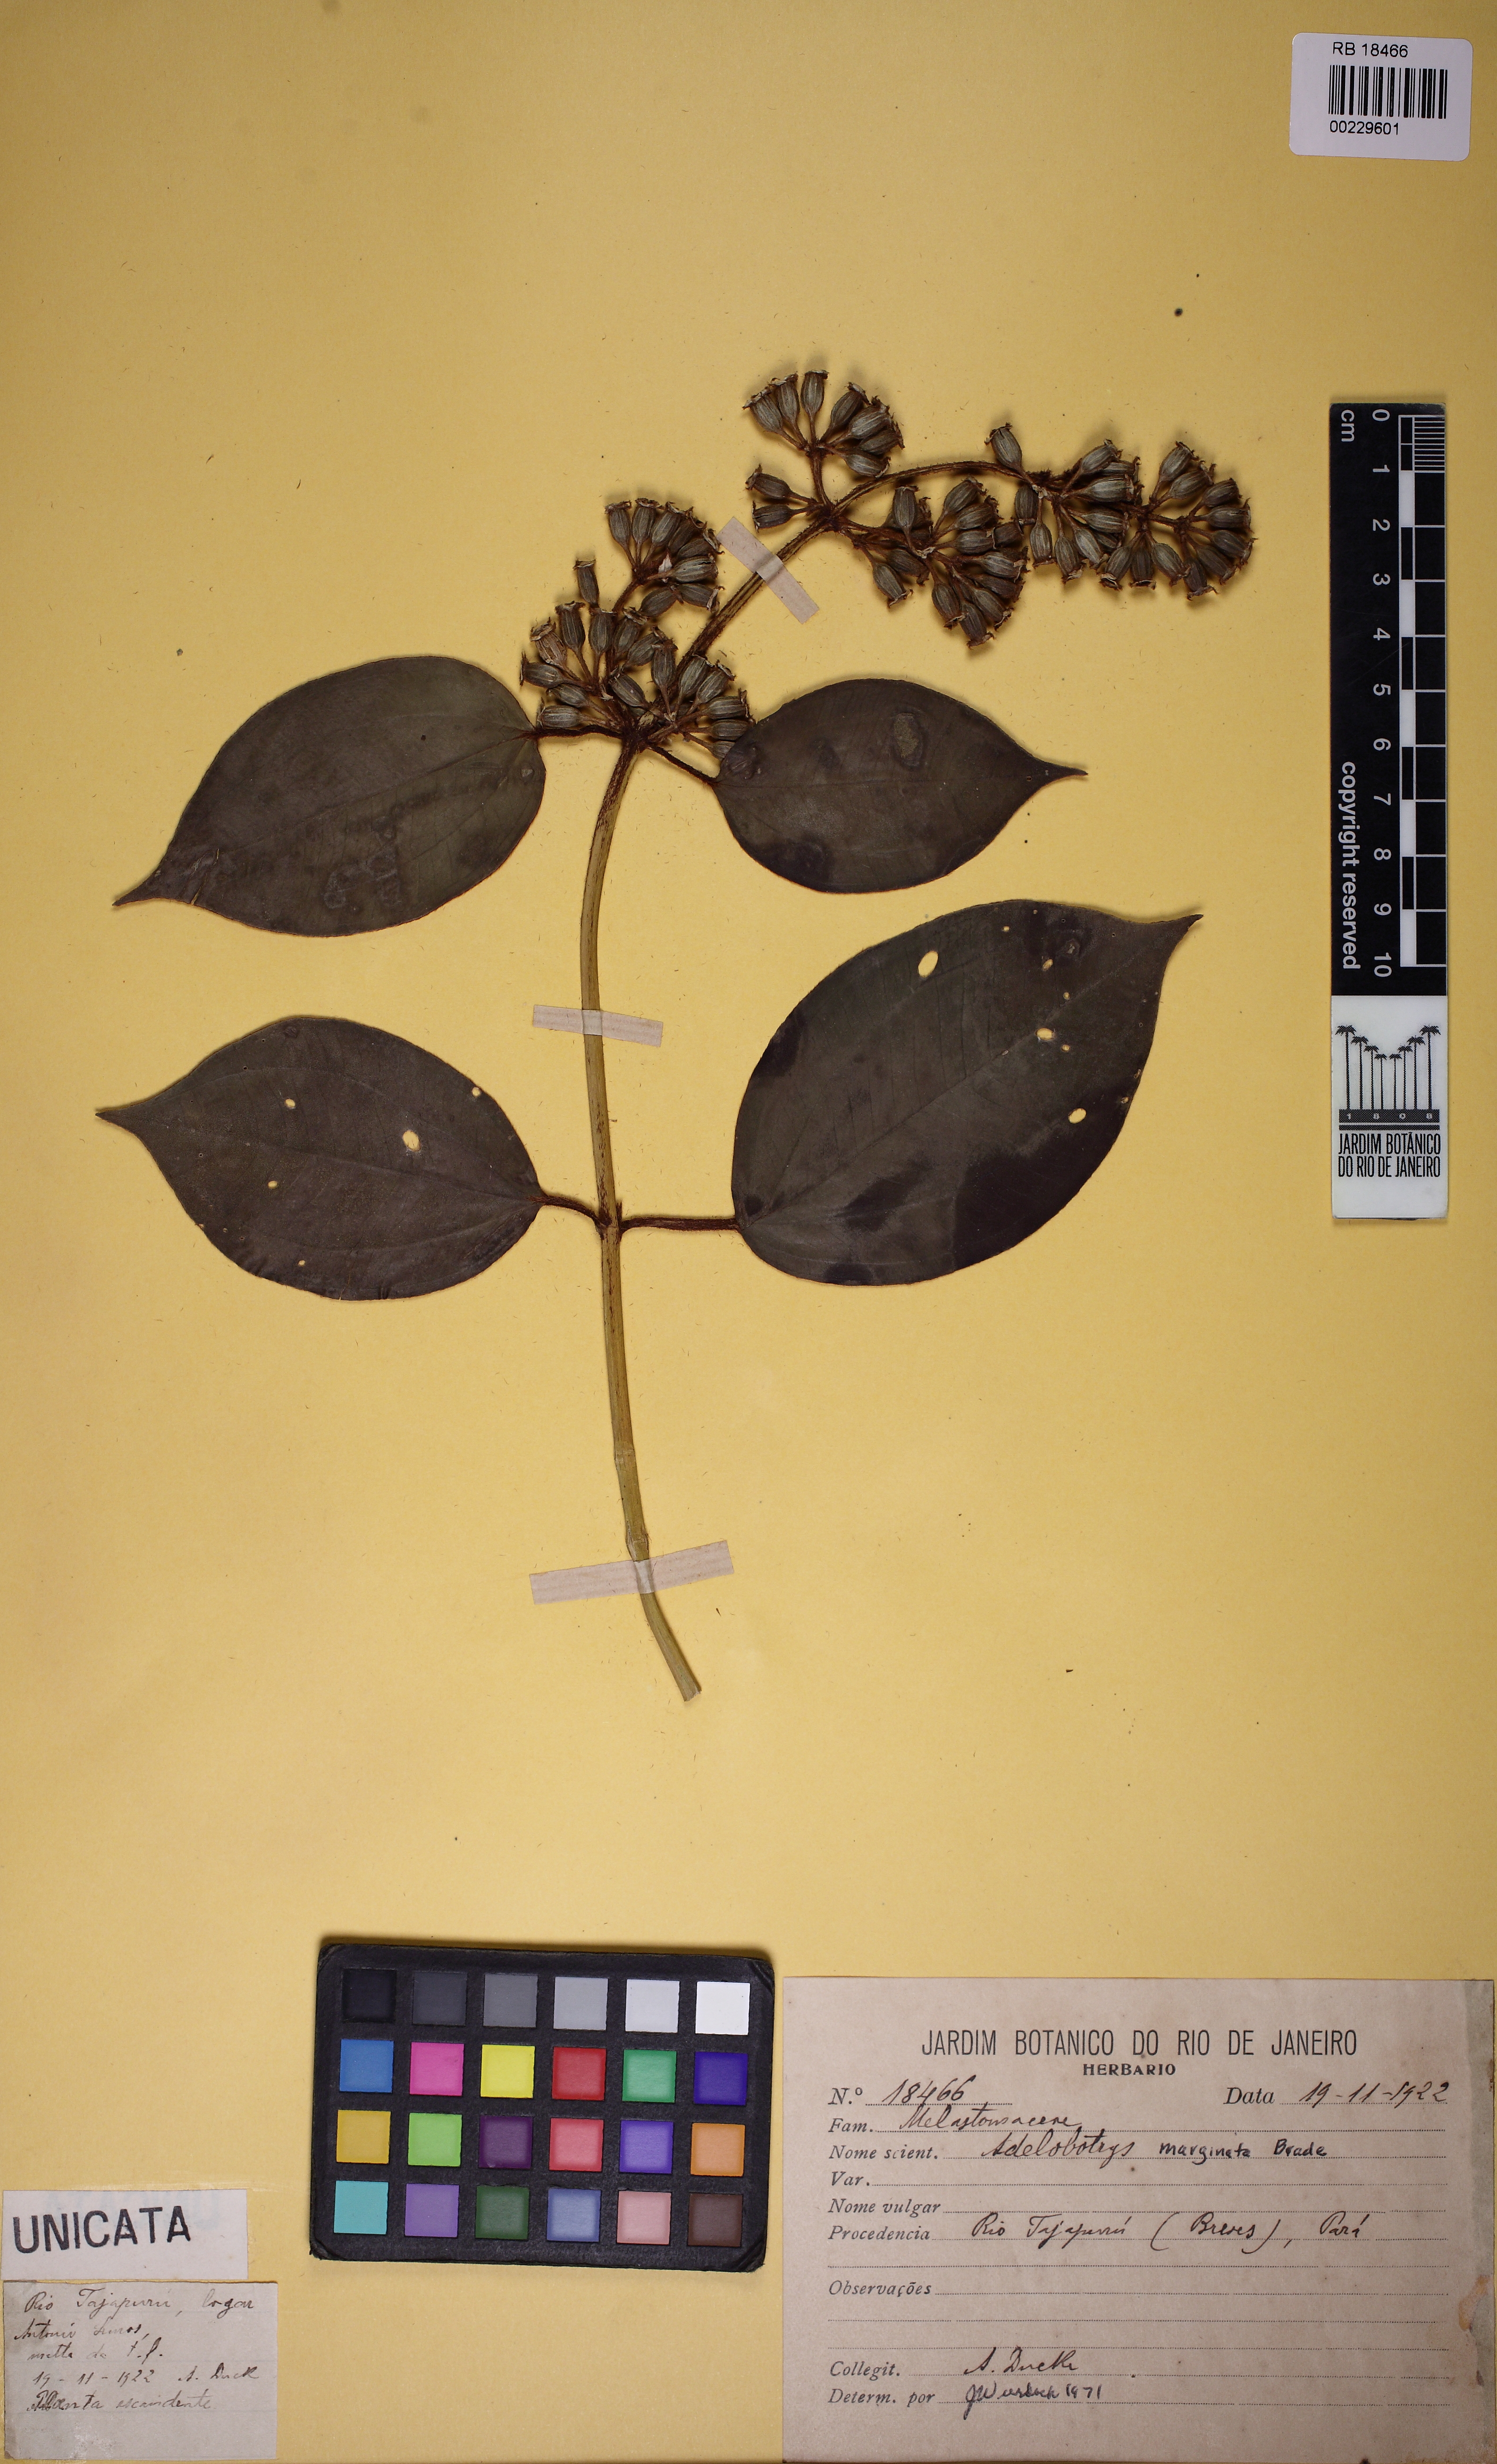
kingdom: Plantae
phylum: Tracheophyta
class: Magnoliopsida
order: Myrtales
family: Melastomataceae
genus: Adelobotrys
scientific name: Adelobotrys marginatus
